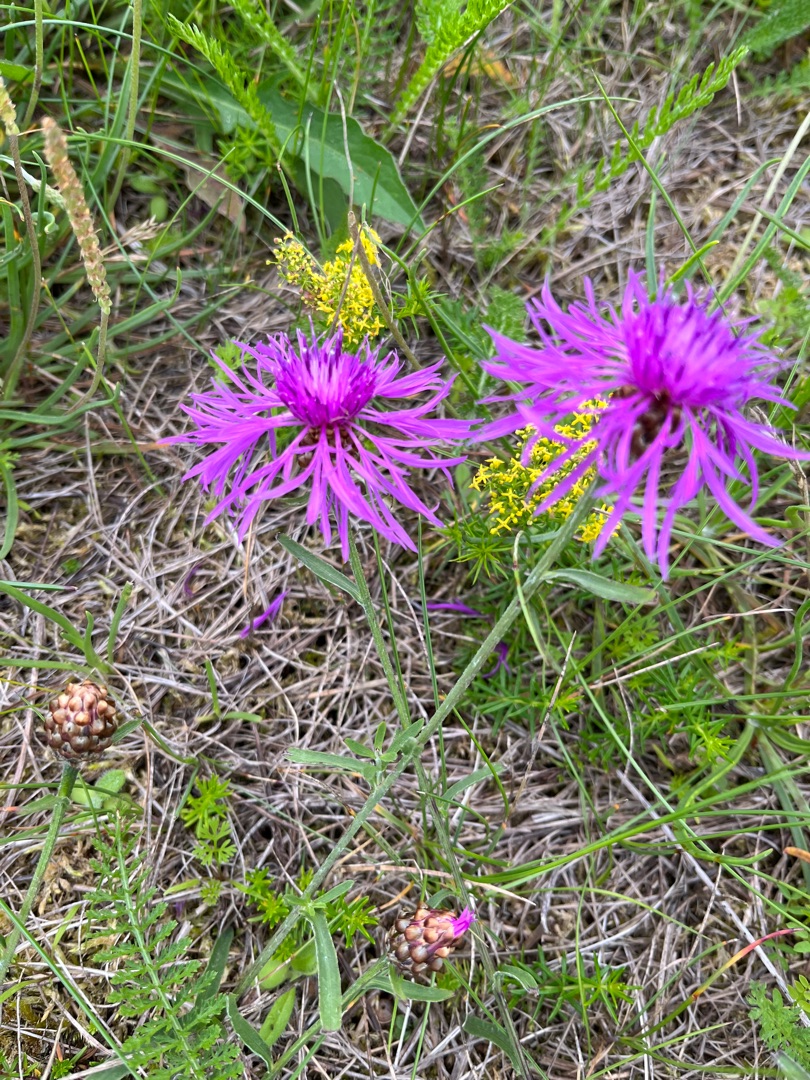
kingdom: Plantae
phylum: Tracheophyta
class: Magnoliopsida
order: Asterales
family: Asteraceae
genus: Centaurea
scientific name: Centaurea jacea
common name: Almindelig knopurt
